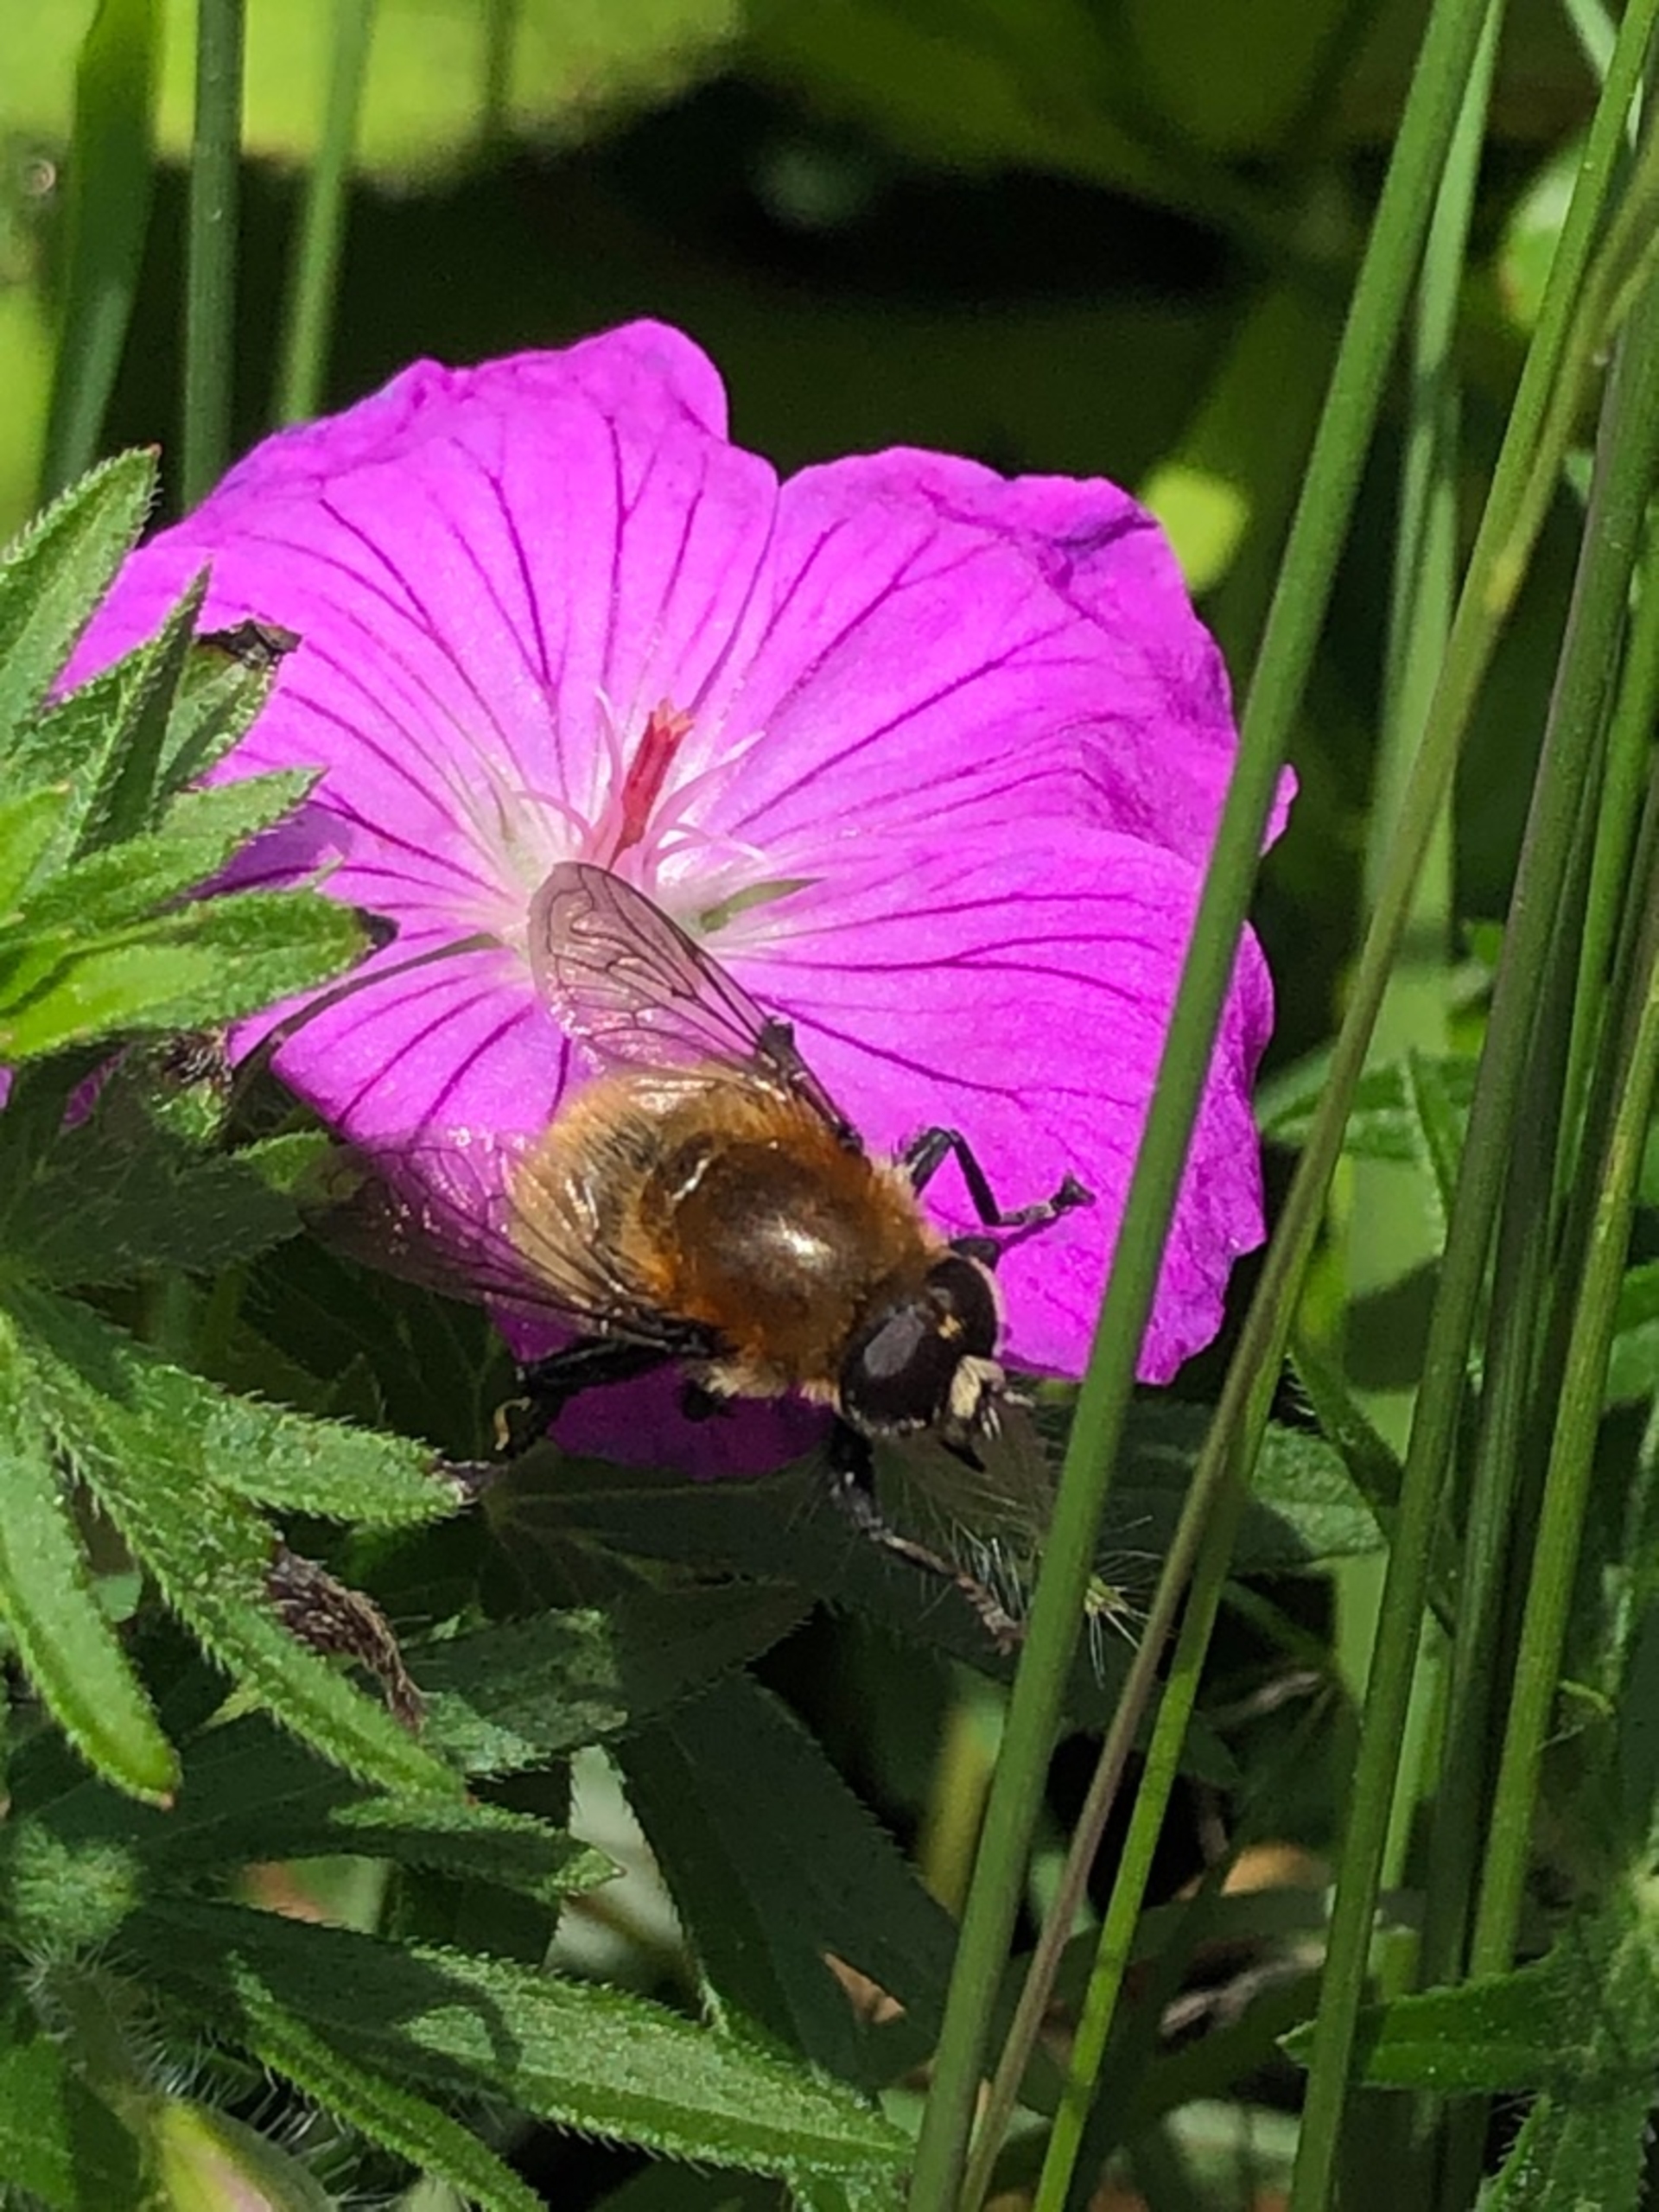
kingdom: Animalia
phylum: Arthropoda
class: Insecta
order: Diptera
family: Syrphidae
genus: Merodon
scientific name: Merodon equestris
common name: Stor narcisflue
